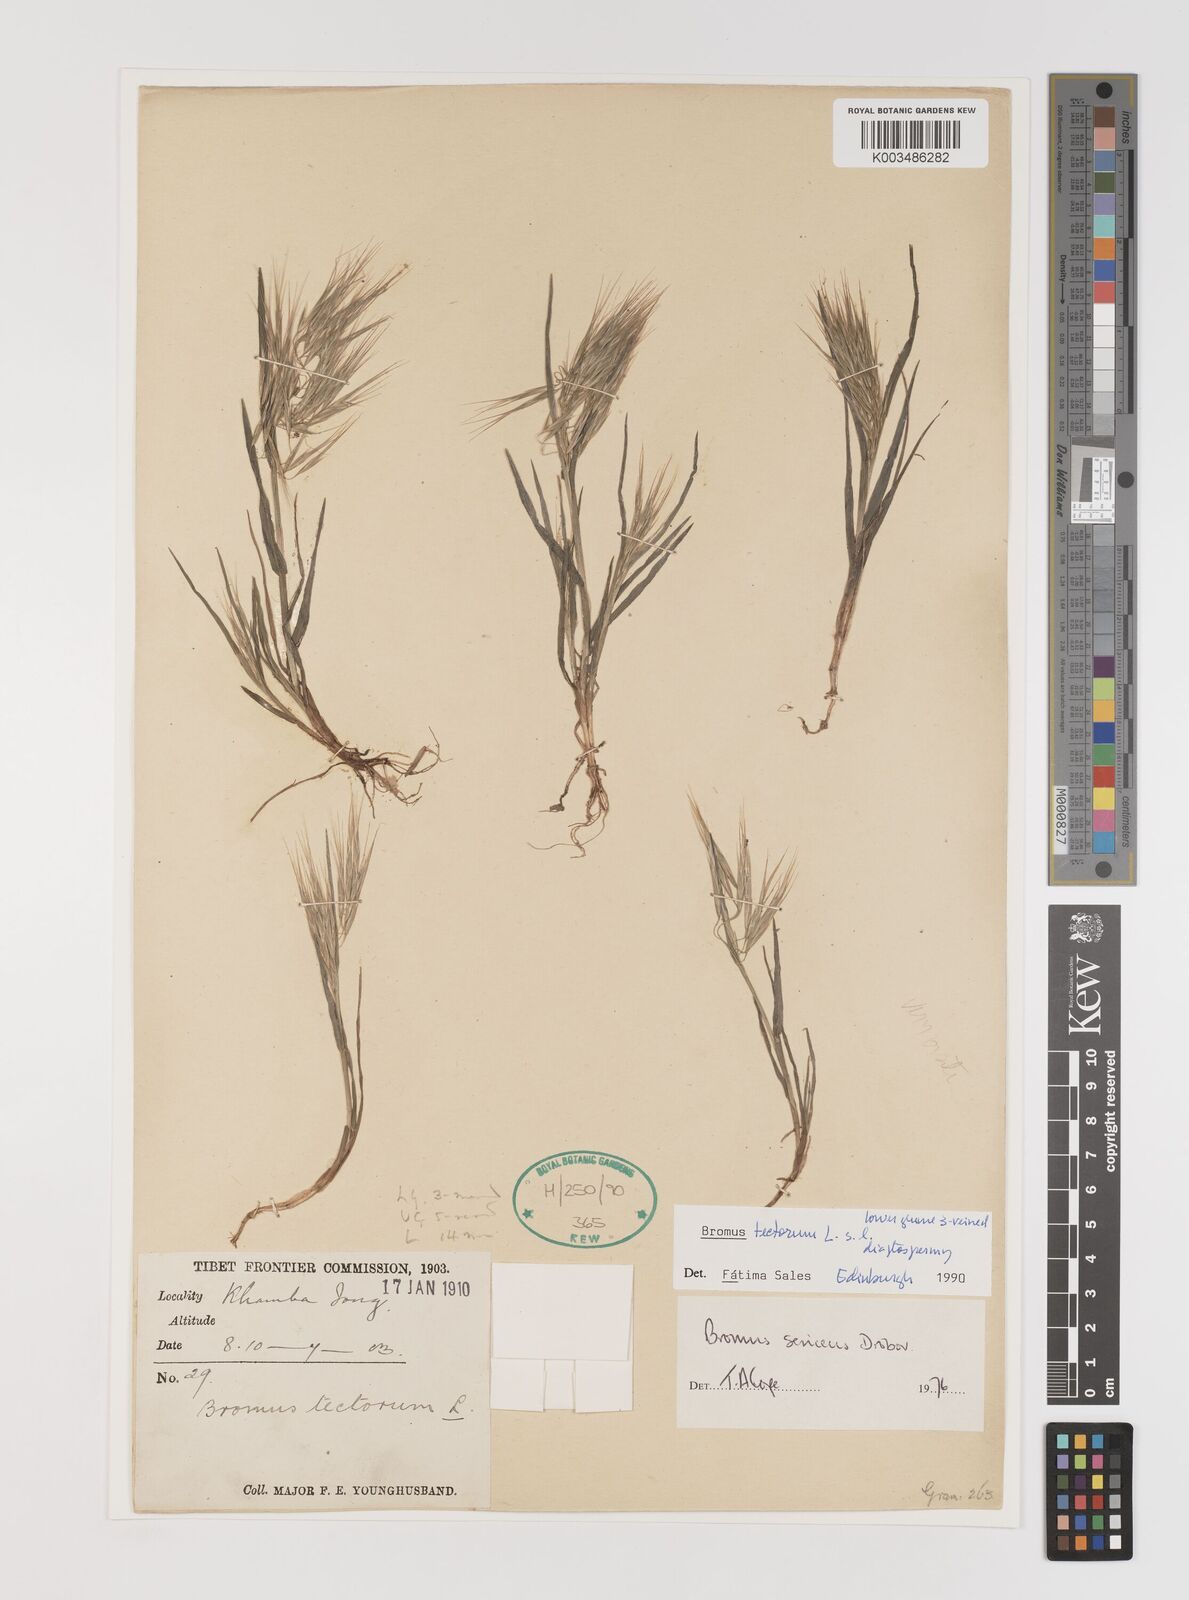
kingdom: Plantae
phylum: Tracheophyta
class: Liliopsida
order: Poales
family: Poaceae
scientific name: Poaceae
